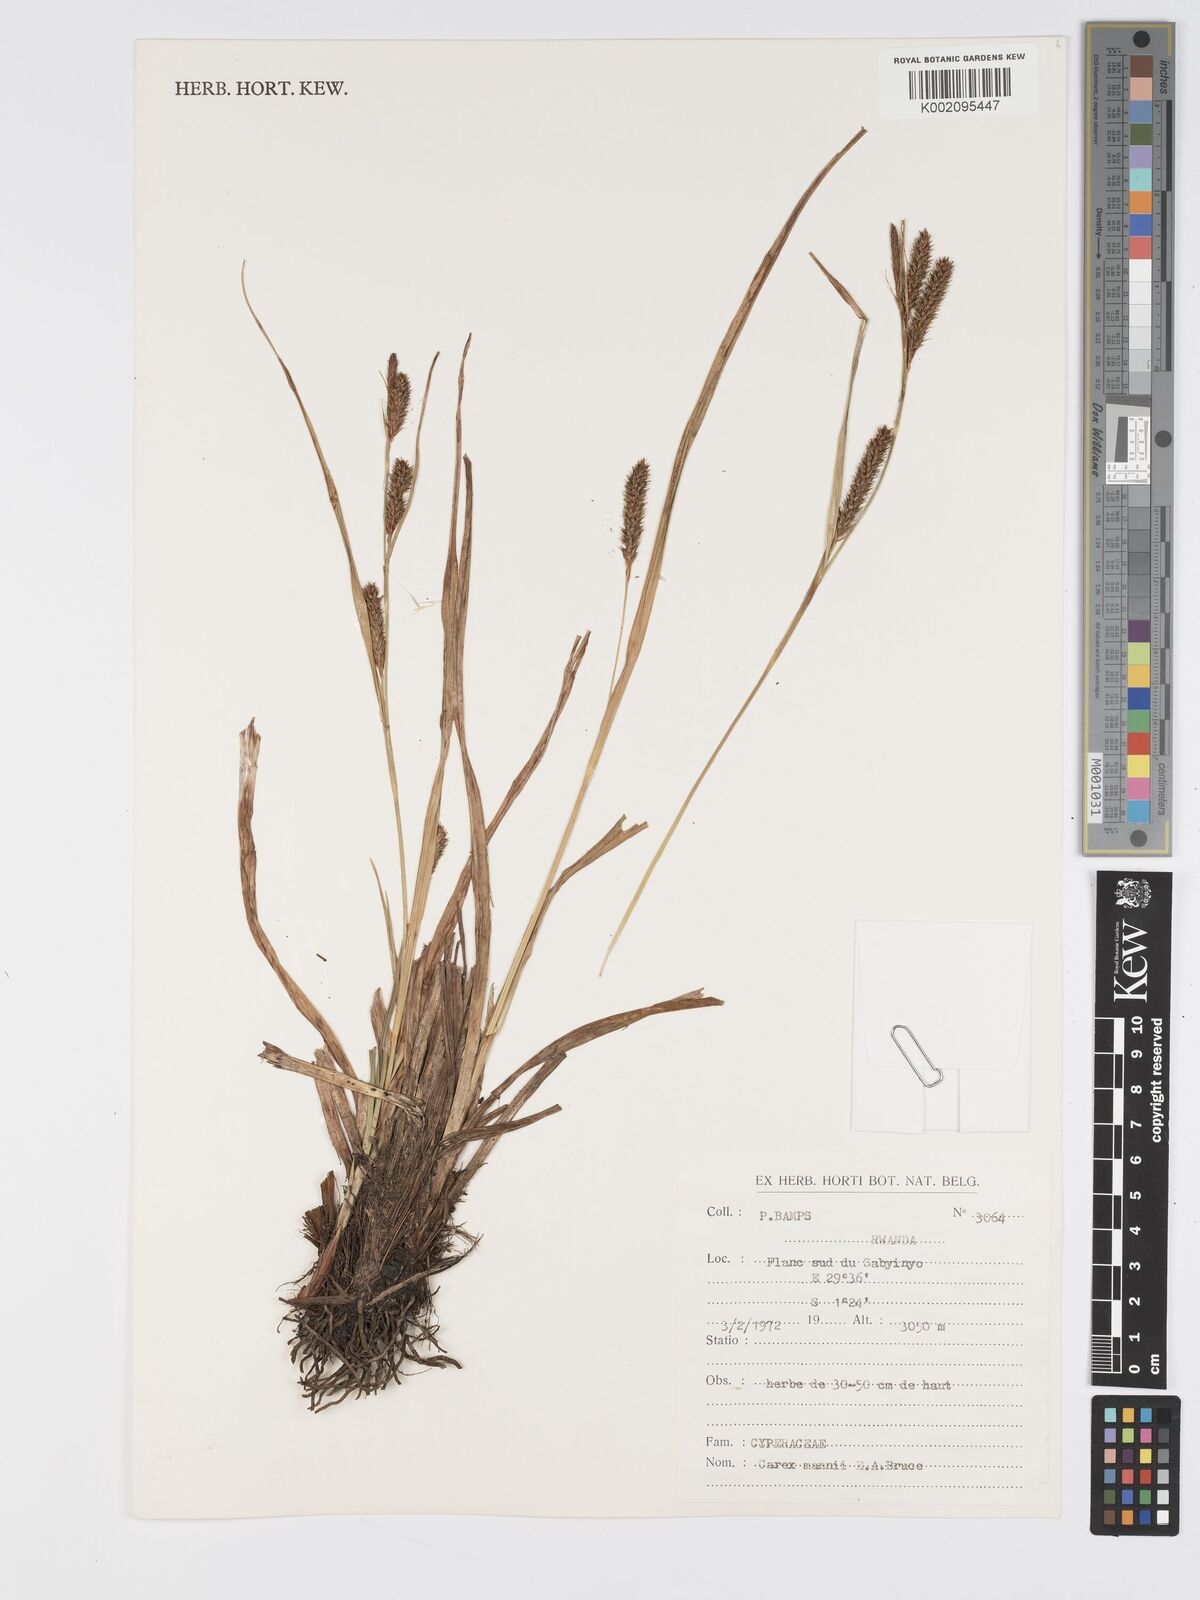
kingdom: Plantae
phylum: Tracheophyta
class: Liliopsida
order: Poales
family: Cyperaceae
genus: Carex
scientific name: Carex mannii
